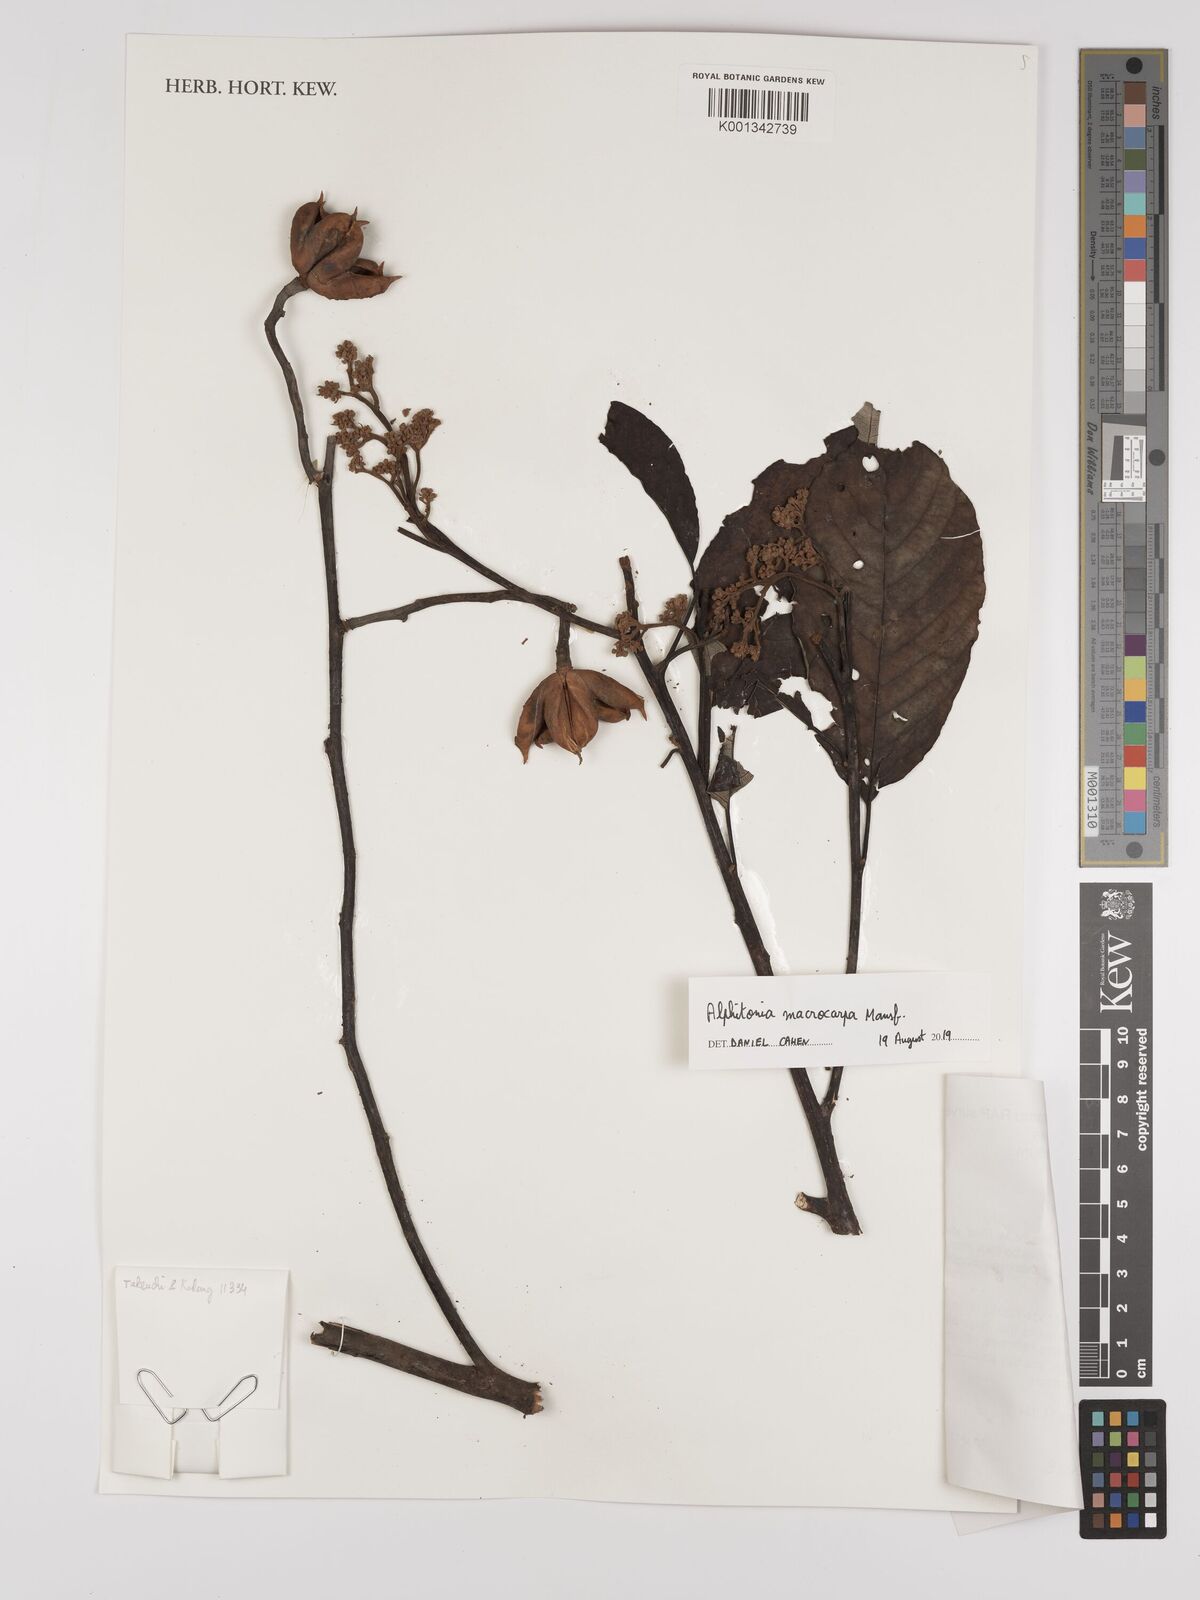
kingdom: Plantae
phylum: Tracheophyta
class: Magnoliopsida
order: Rosales
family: Rhamnaceae
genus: Alphitonia
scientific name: Alphitonia macrocarpa
